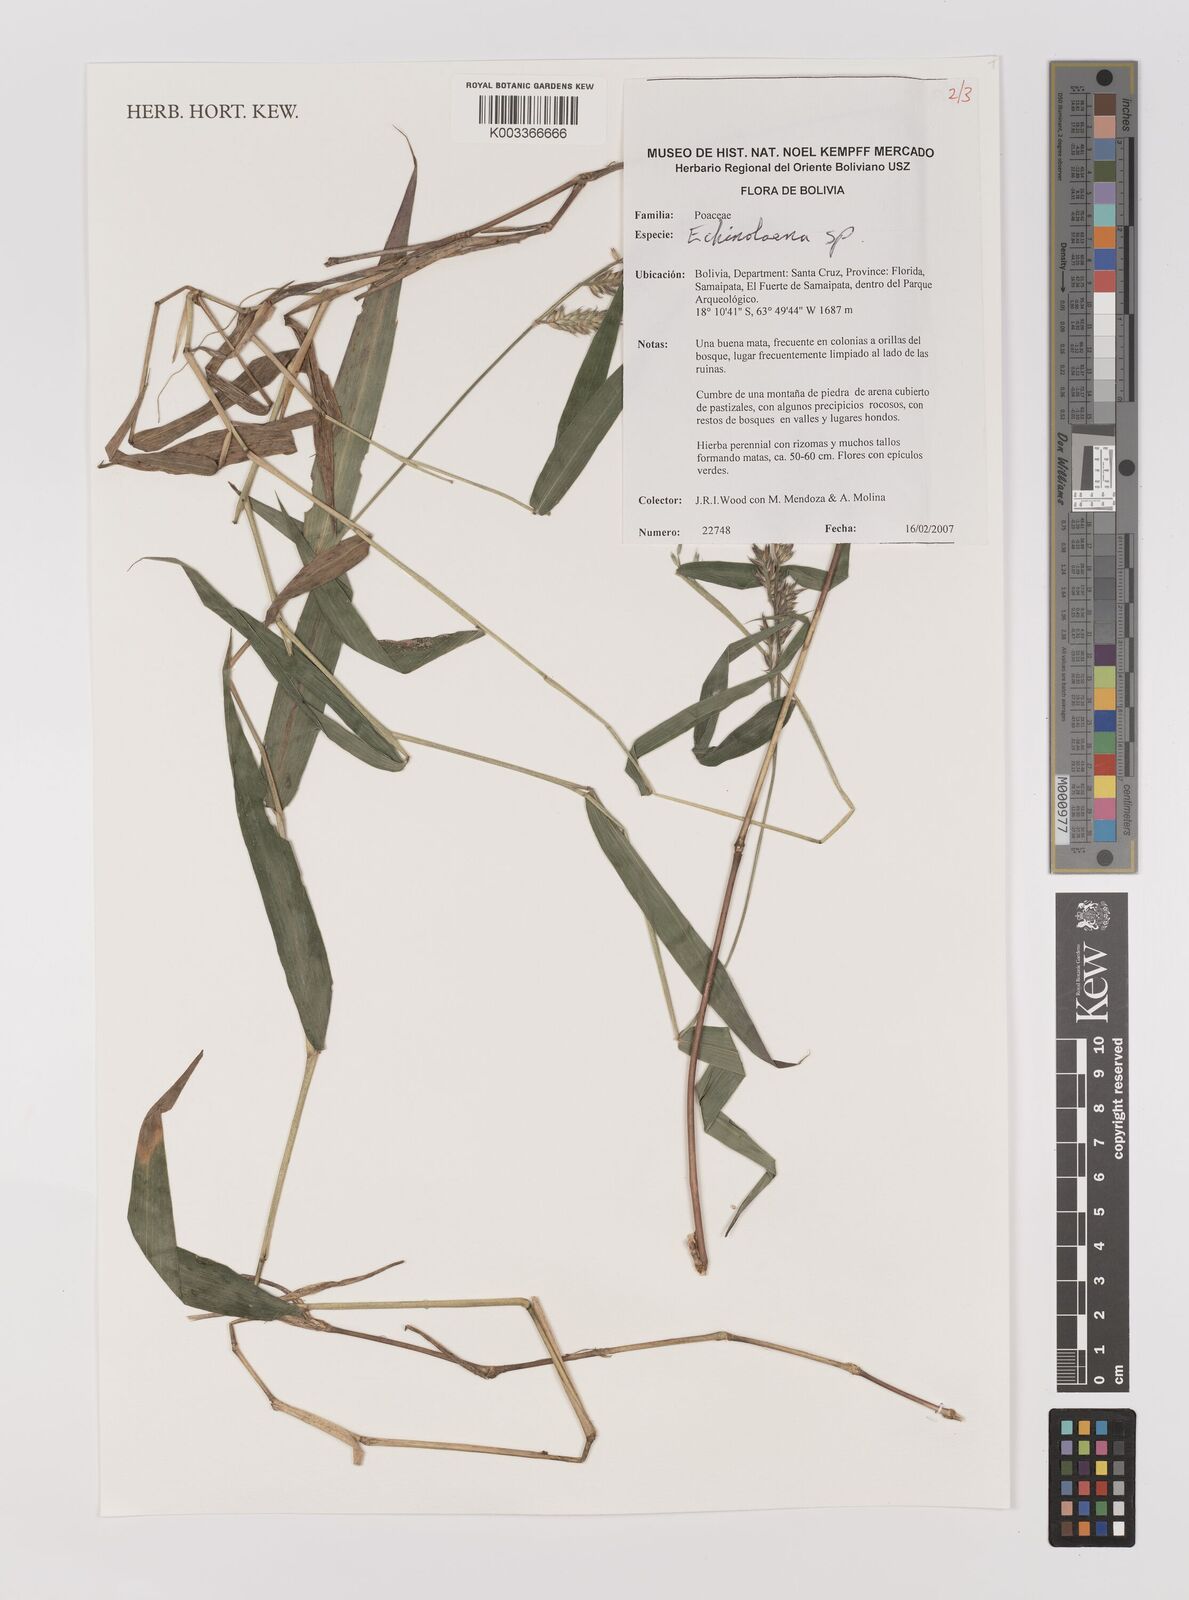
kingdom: Plantae
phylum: Tracheophyta
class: Liliopsida
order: Poales
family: Poaceae
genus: Oedochloa
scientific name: Oedochloa minarum
